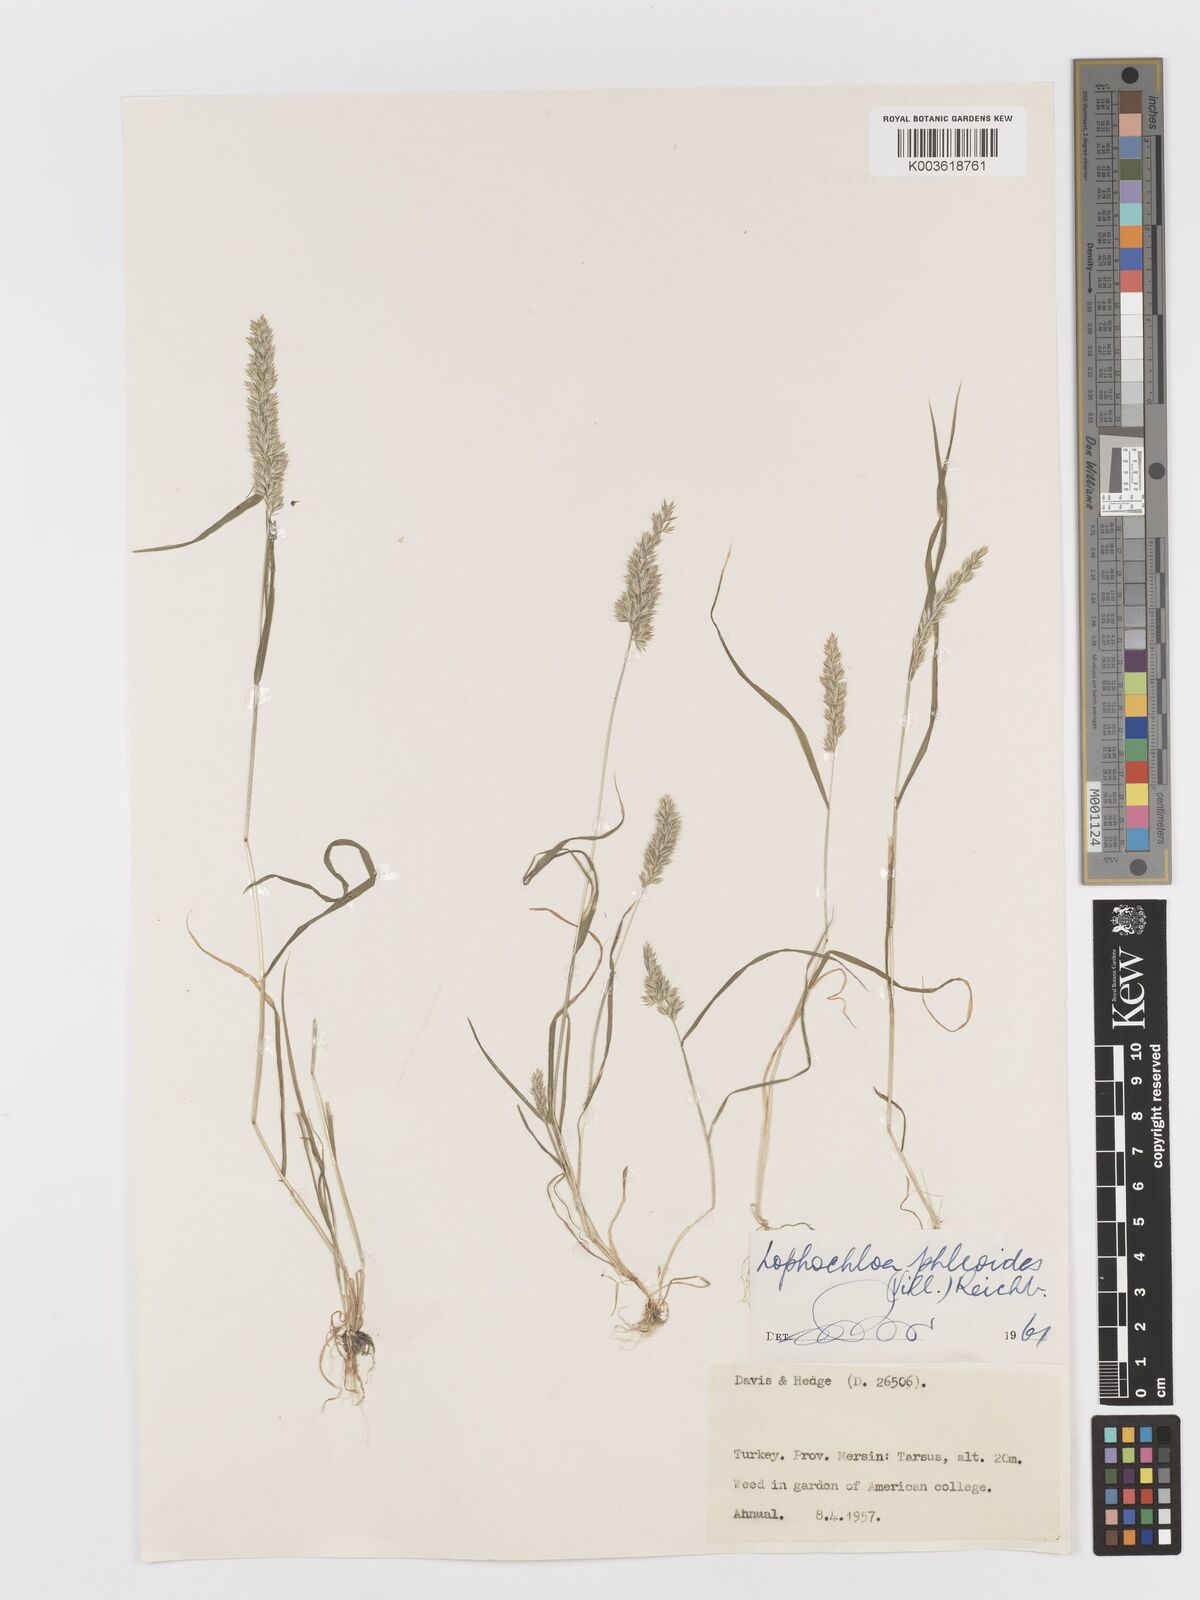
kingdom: Plantae
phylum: Tracheophyta
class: Liliopsida
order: Poales
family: Poaceae
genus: Rostraria
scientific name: Rostraria cristata
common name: Mediterranean hair-grass
